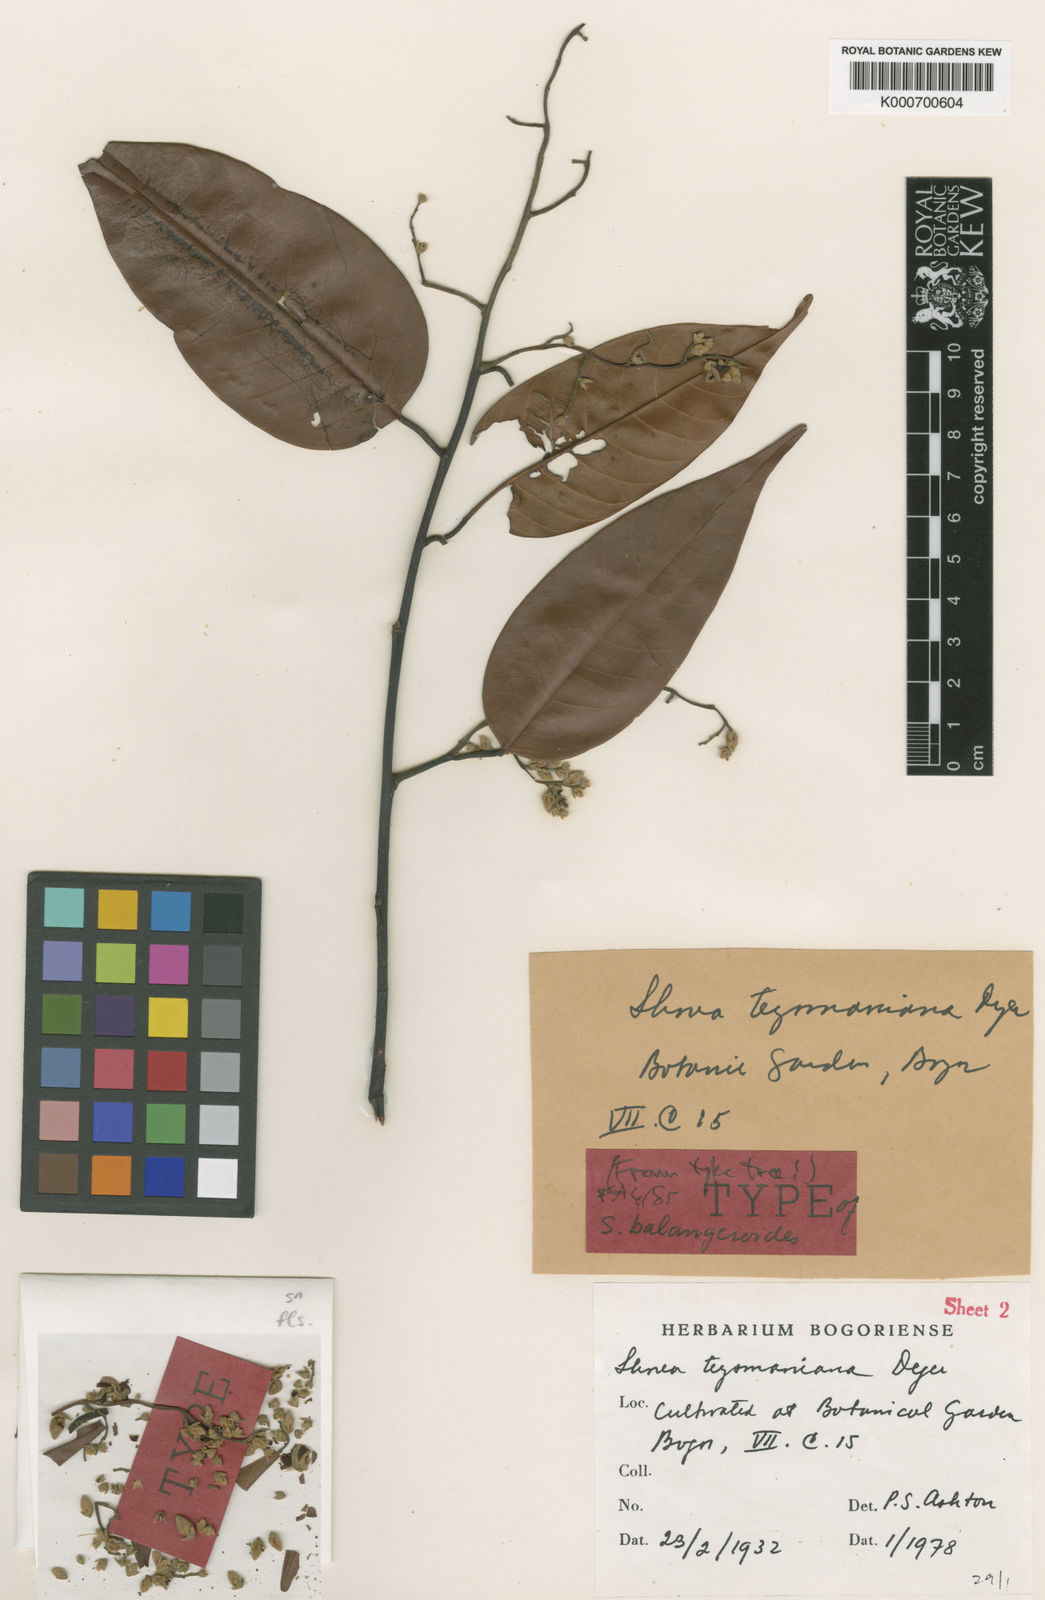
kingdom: Plantae
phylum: Tracheophyta
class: Magnoliopsida
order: Malvales
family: Dipterocarpaceae
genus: Shorea
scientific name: Shorea teysmanniana
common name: Light red meranti
